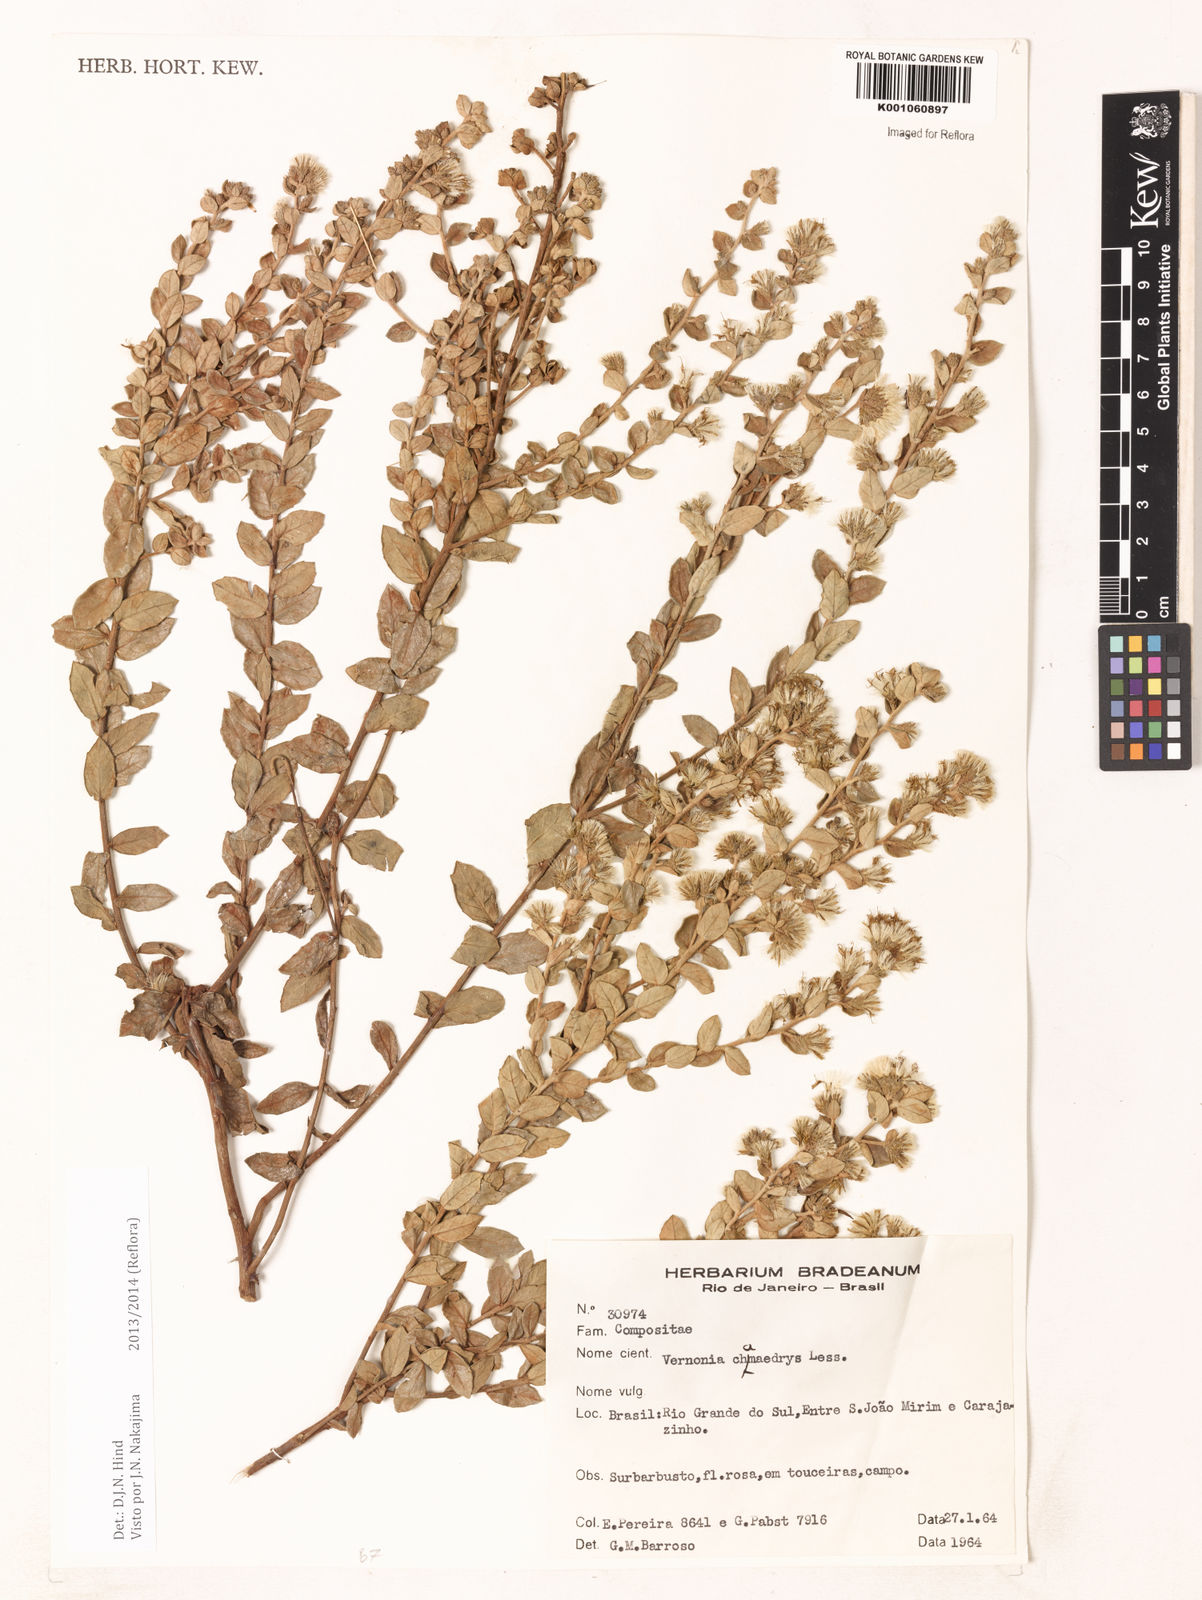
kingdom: Plantae
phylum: Tracheophyta
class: Magnoliopsida
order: Asterales
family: Asteraceae
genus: Vernonanthura
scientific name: Vernonanthura chamaedrys
